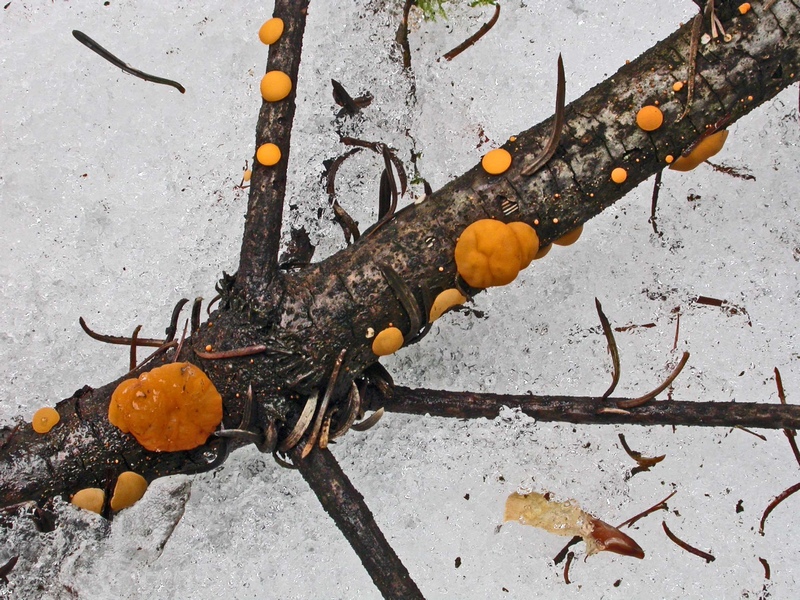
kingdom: Fungi
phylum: Ascomycota
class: Pezizomycetes
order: Pezizales
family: Sarcoscyphaceae
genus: Pithya
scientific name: Pithya vulgaris
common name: stor dukatbæger
